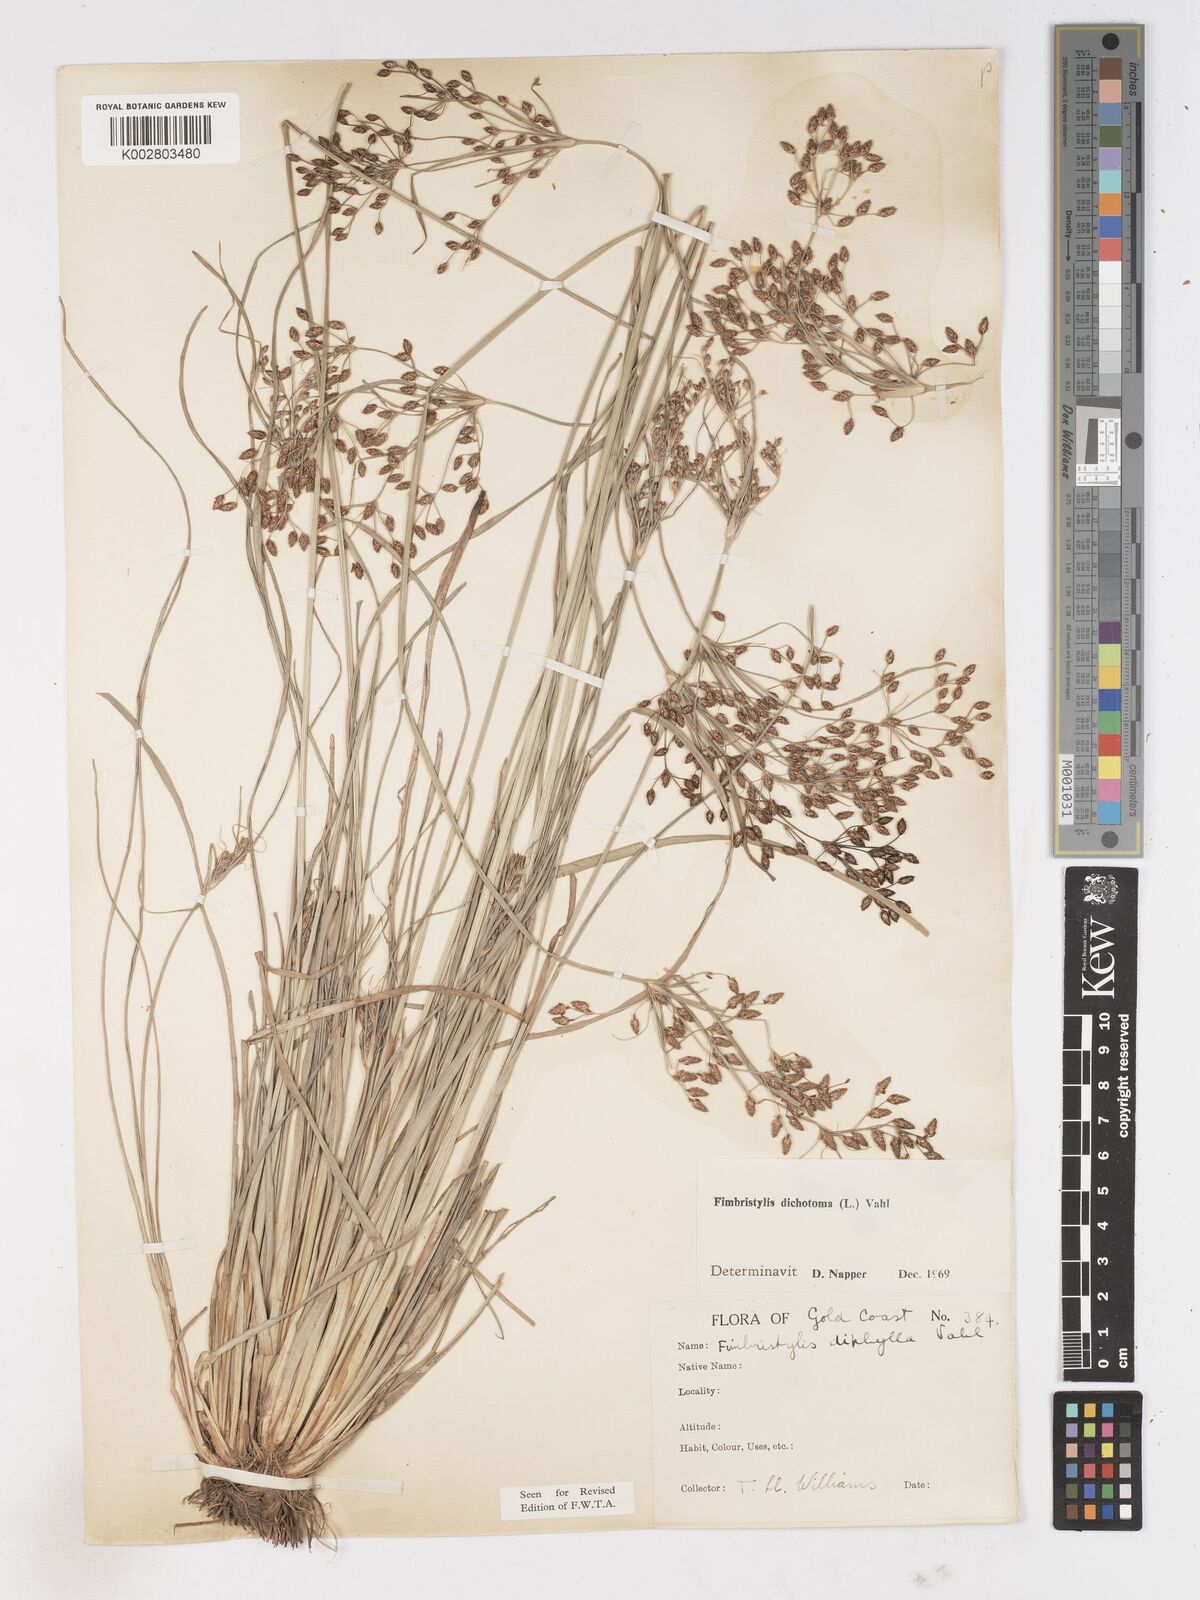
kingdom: Plantae
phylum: Tracheophyta
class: Liliopsida
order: Poales
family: Cyperaceae
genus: Fimbristylis
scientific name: Fimbristylis dichotoma
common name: Forked fimbry
